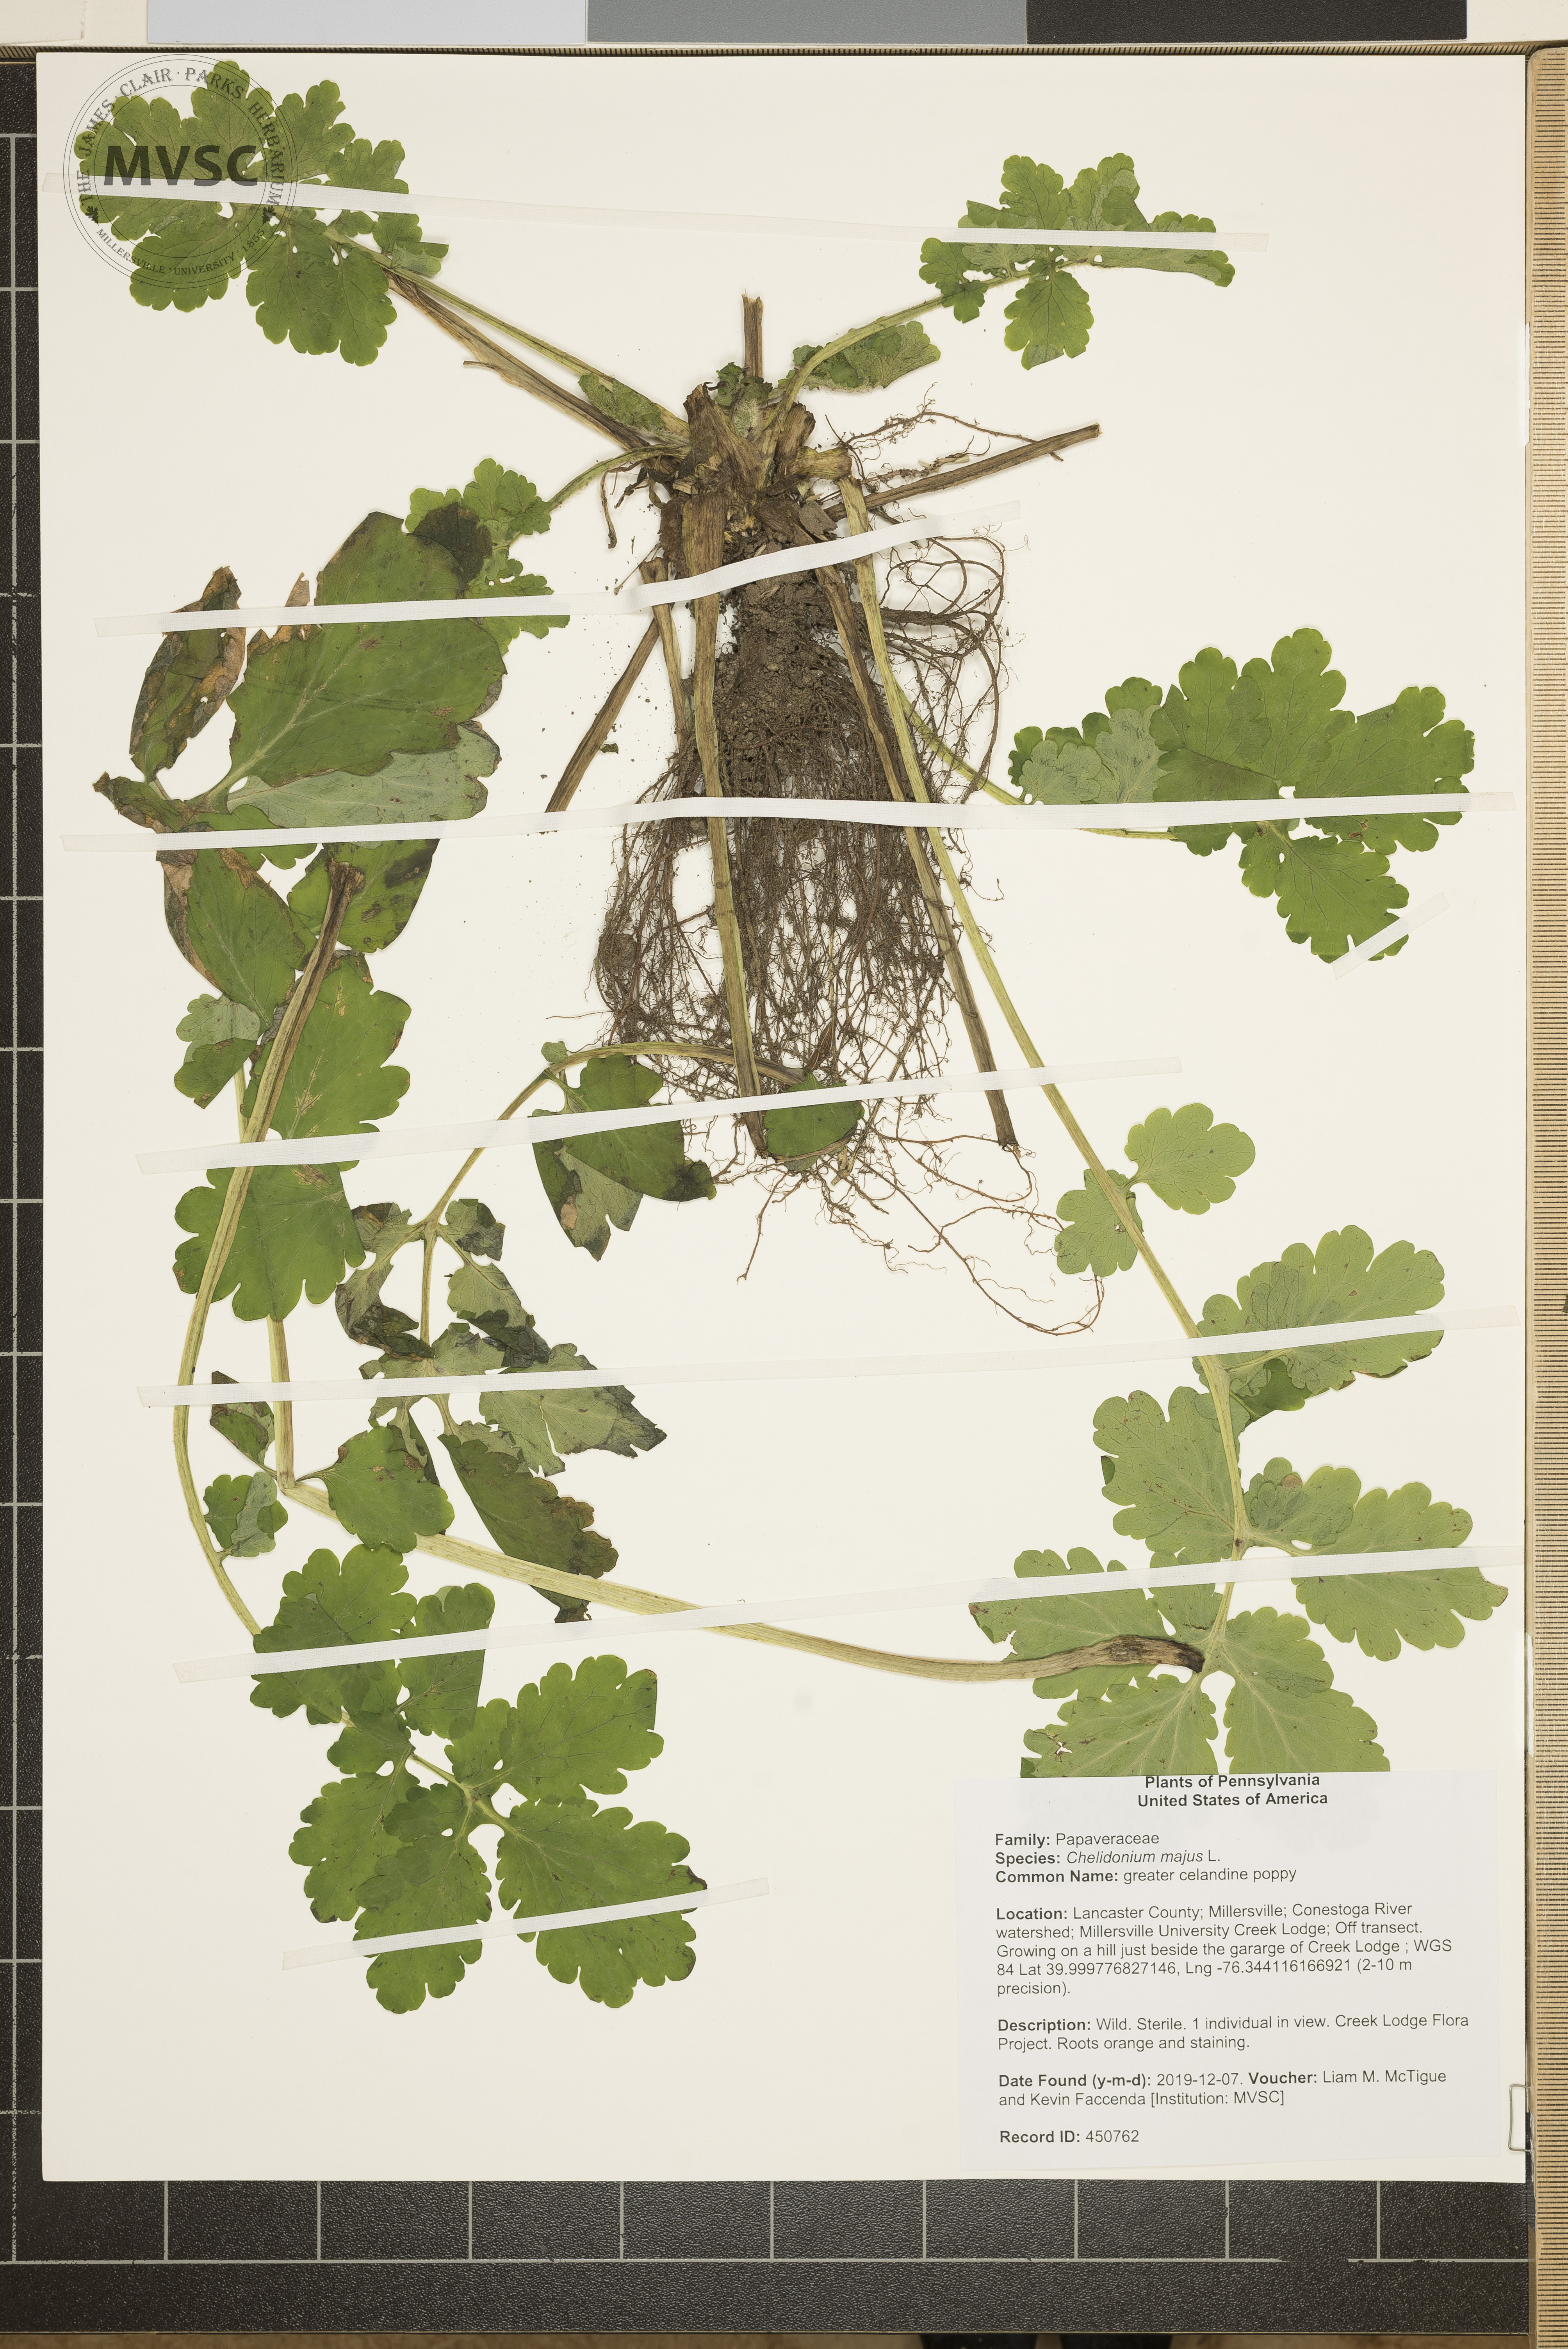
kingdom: Plantae
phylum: Tracheophyta
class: Magnoliopsida
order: Ranunculales
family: Papaveraceae
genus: Chelidonium
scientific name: Chelidonium majus
